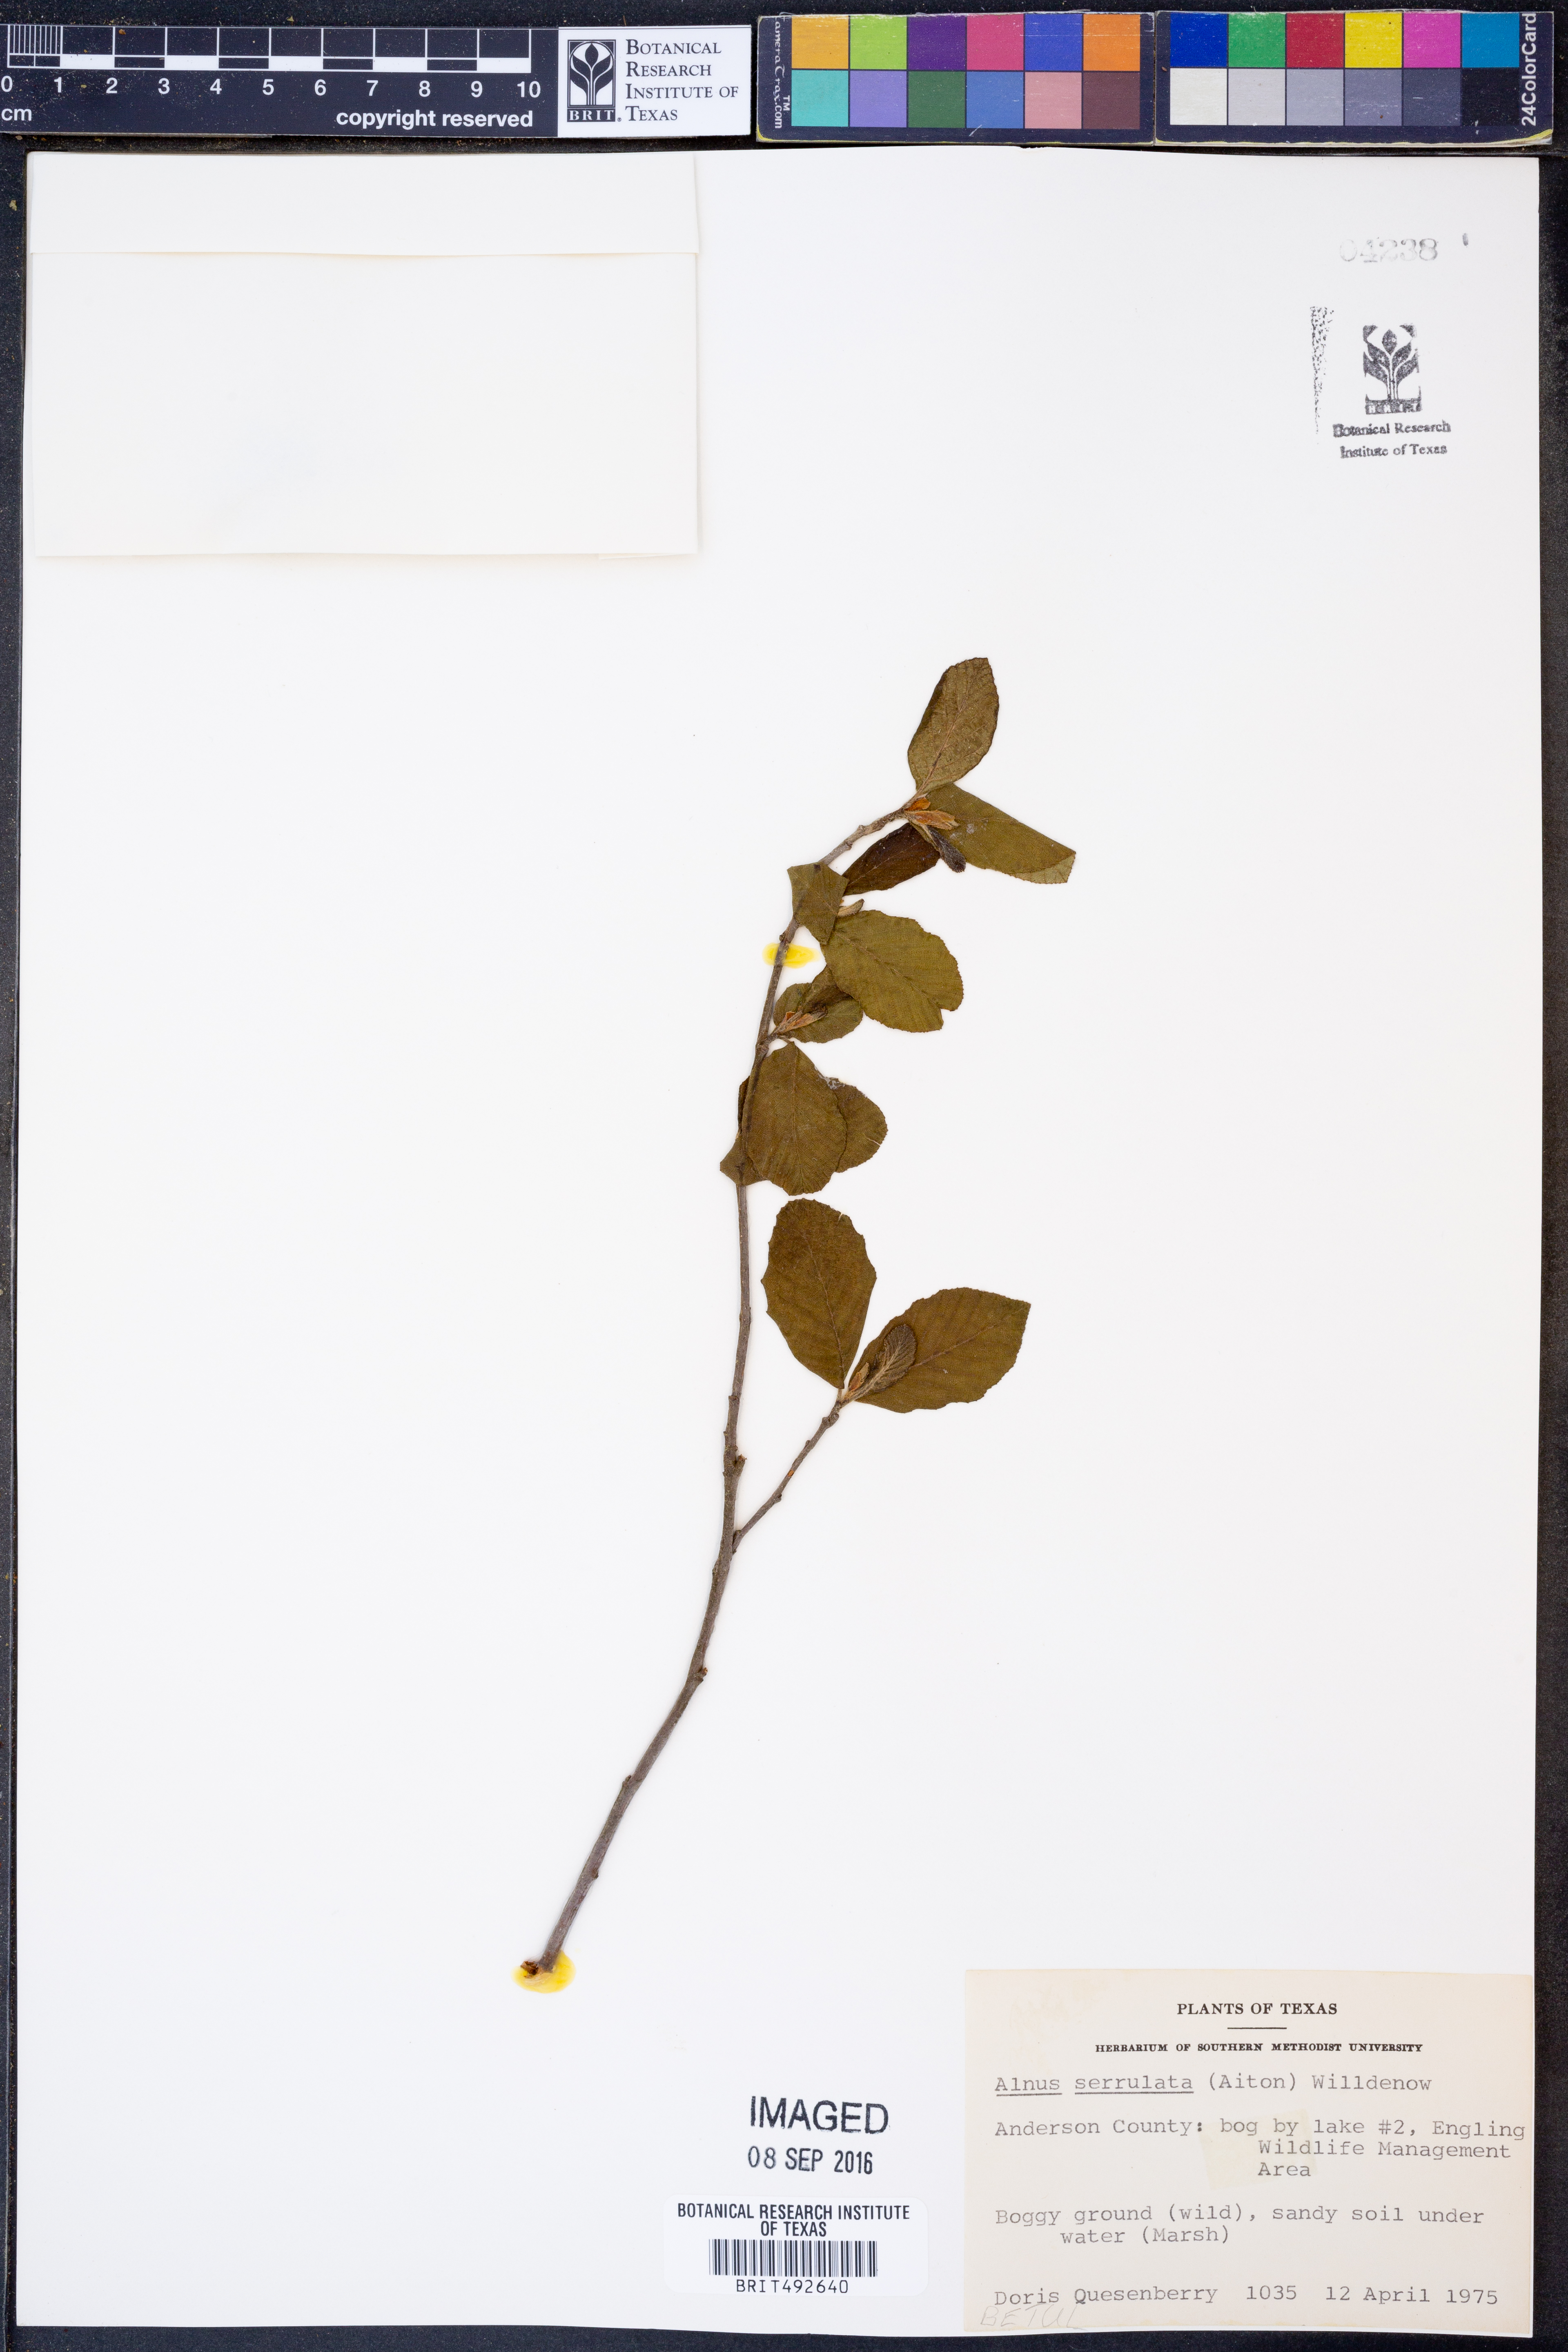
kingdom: Plantae
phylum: Tracheophyta
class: Magnoliopsida
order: Fagales
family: Betulaceae
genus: Alnus
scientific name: Alnus serrulata
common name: Hazel alder
